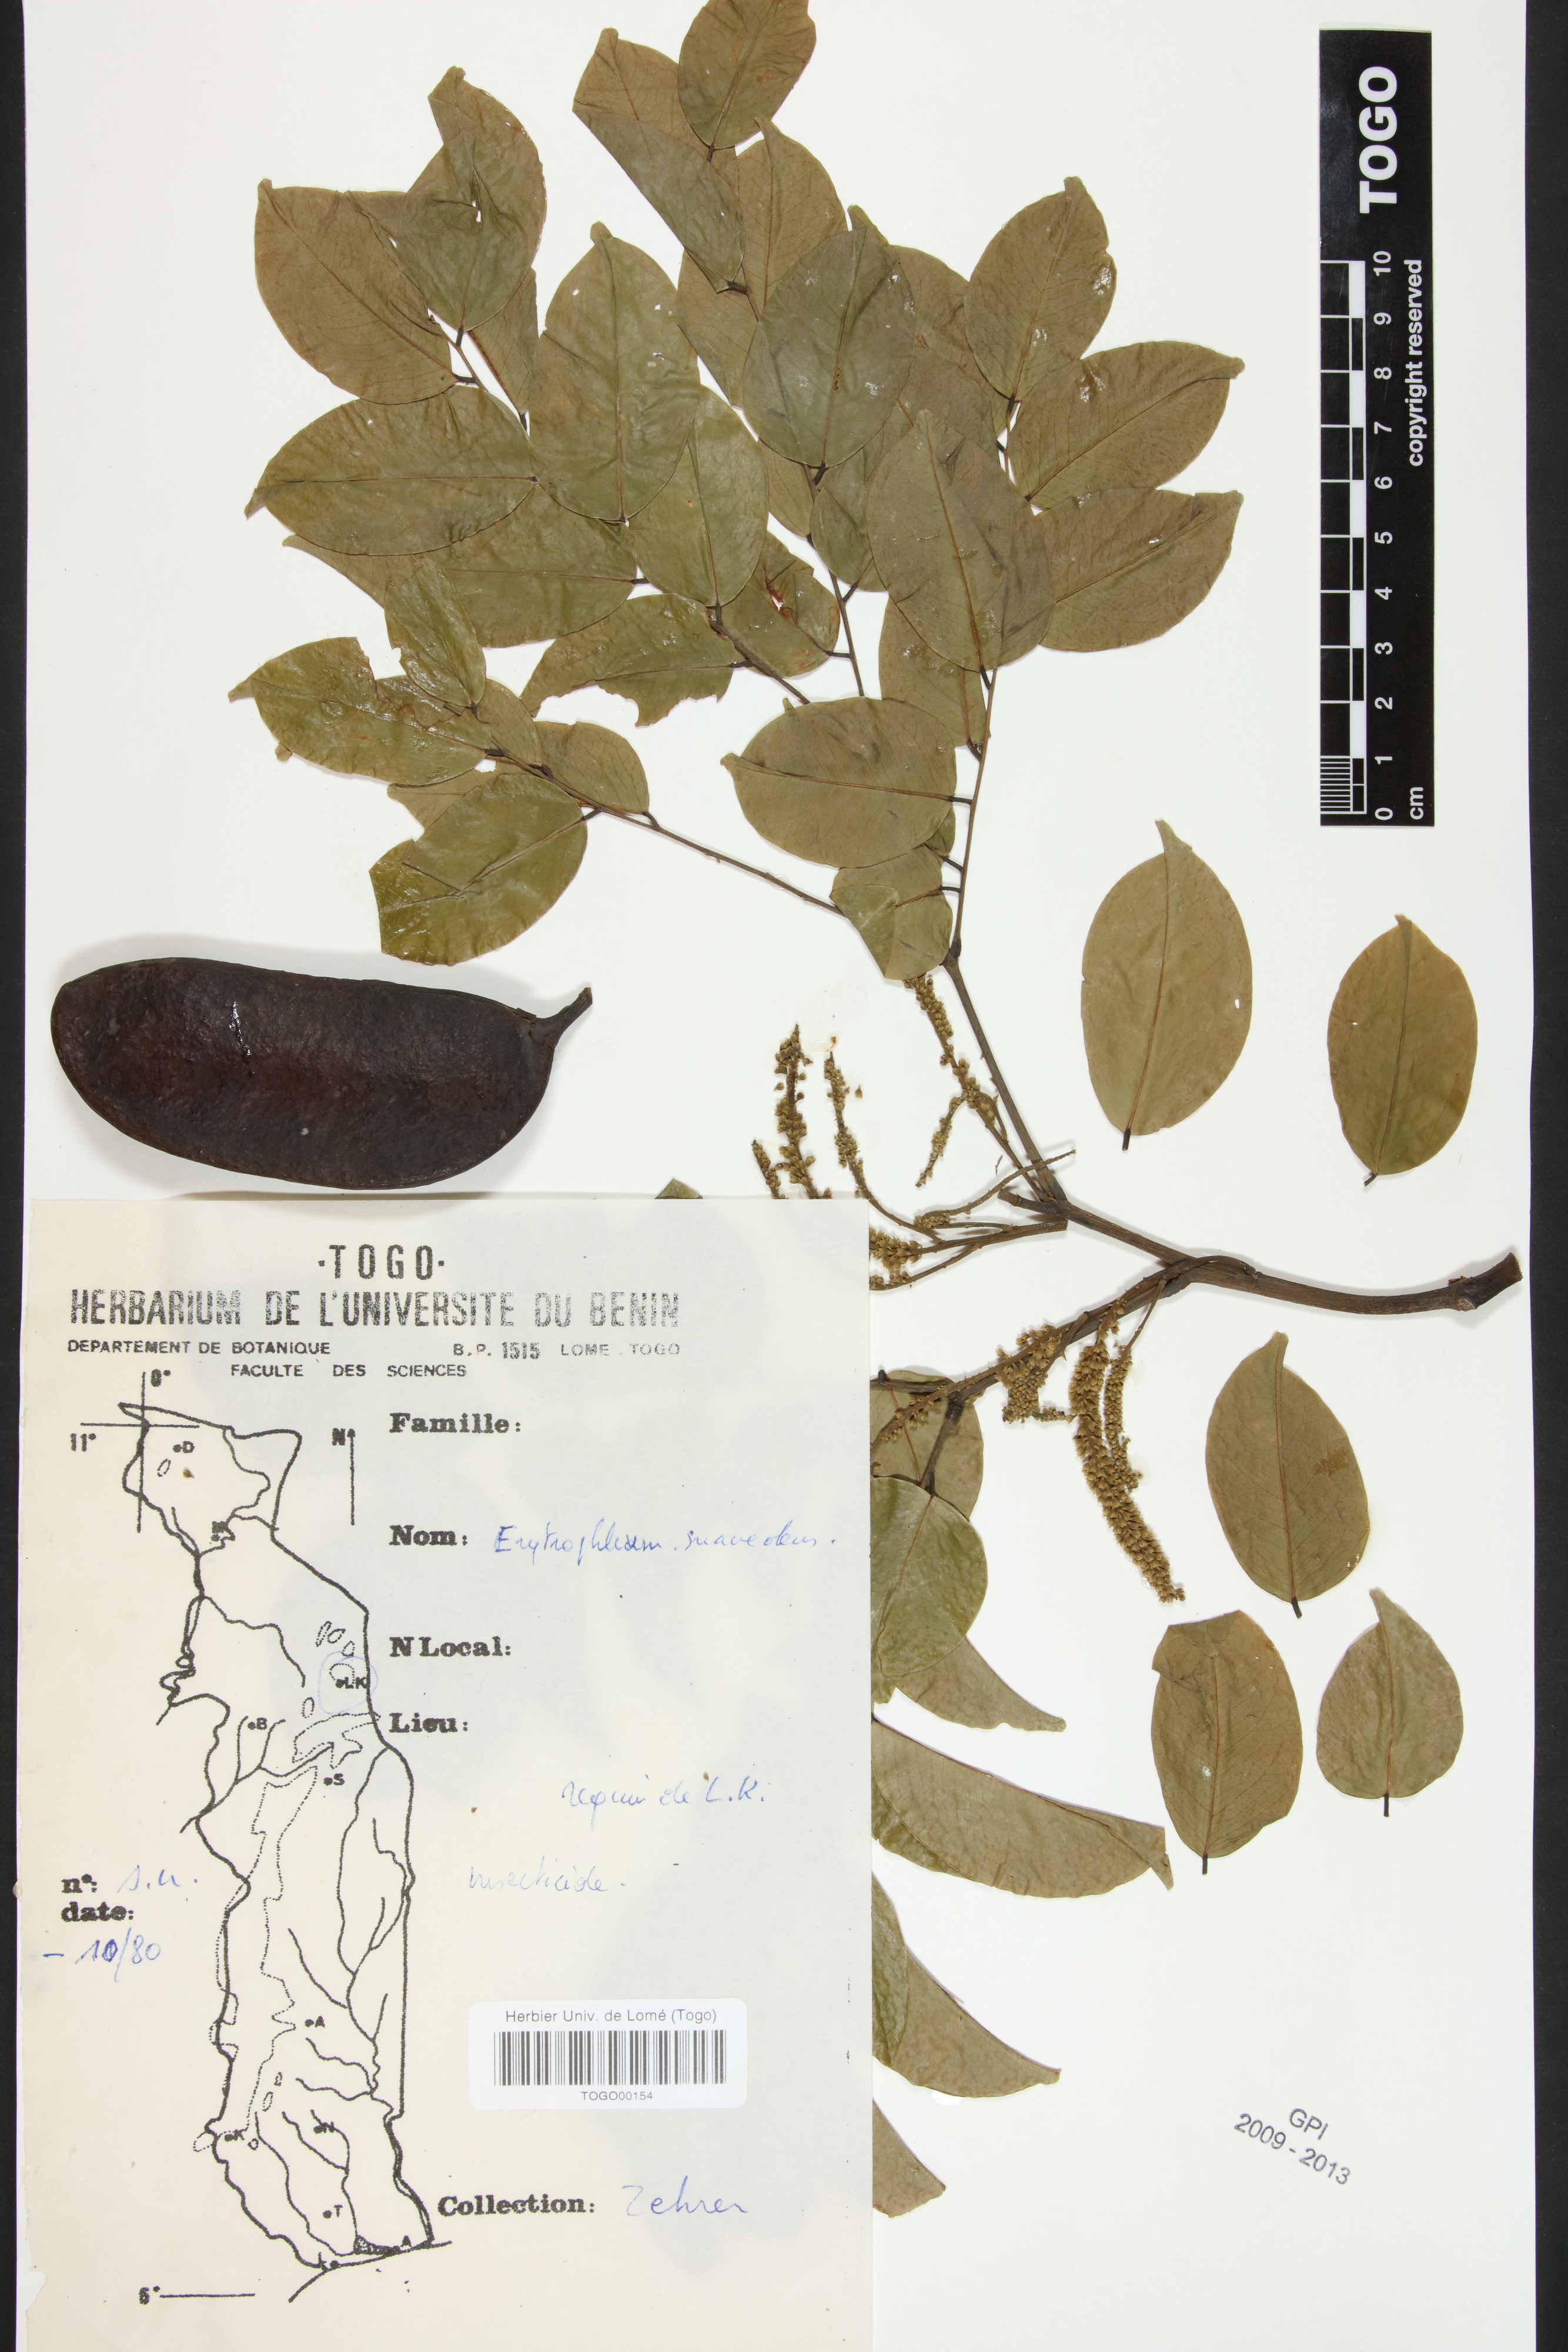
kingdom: Plantae
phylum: Tracheophyta
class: Magnoliopsida
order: Fabales
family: Fabaceae
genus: Erythrophleum
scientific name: Erythrophleum suaveolens
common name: Ordeal tree
